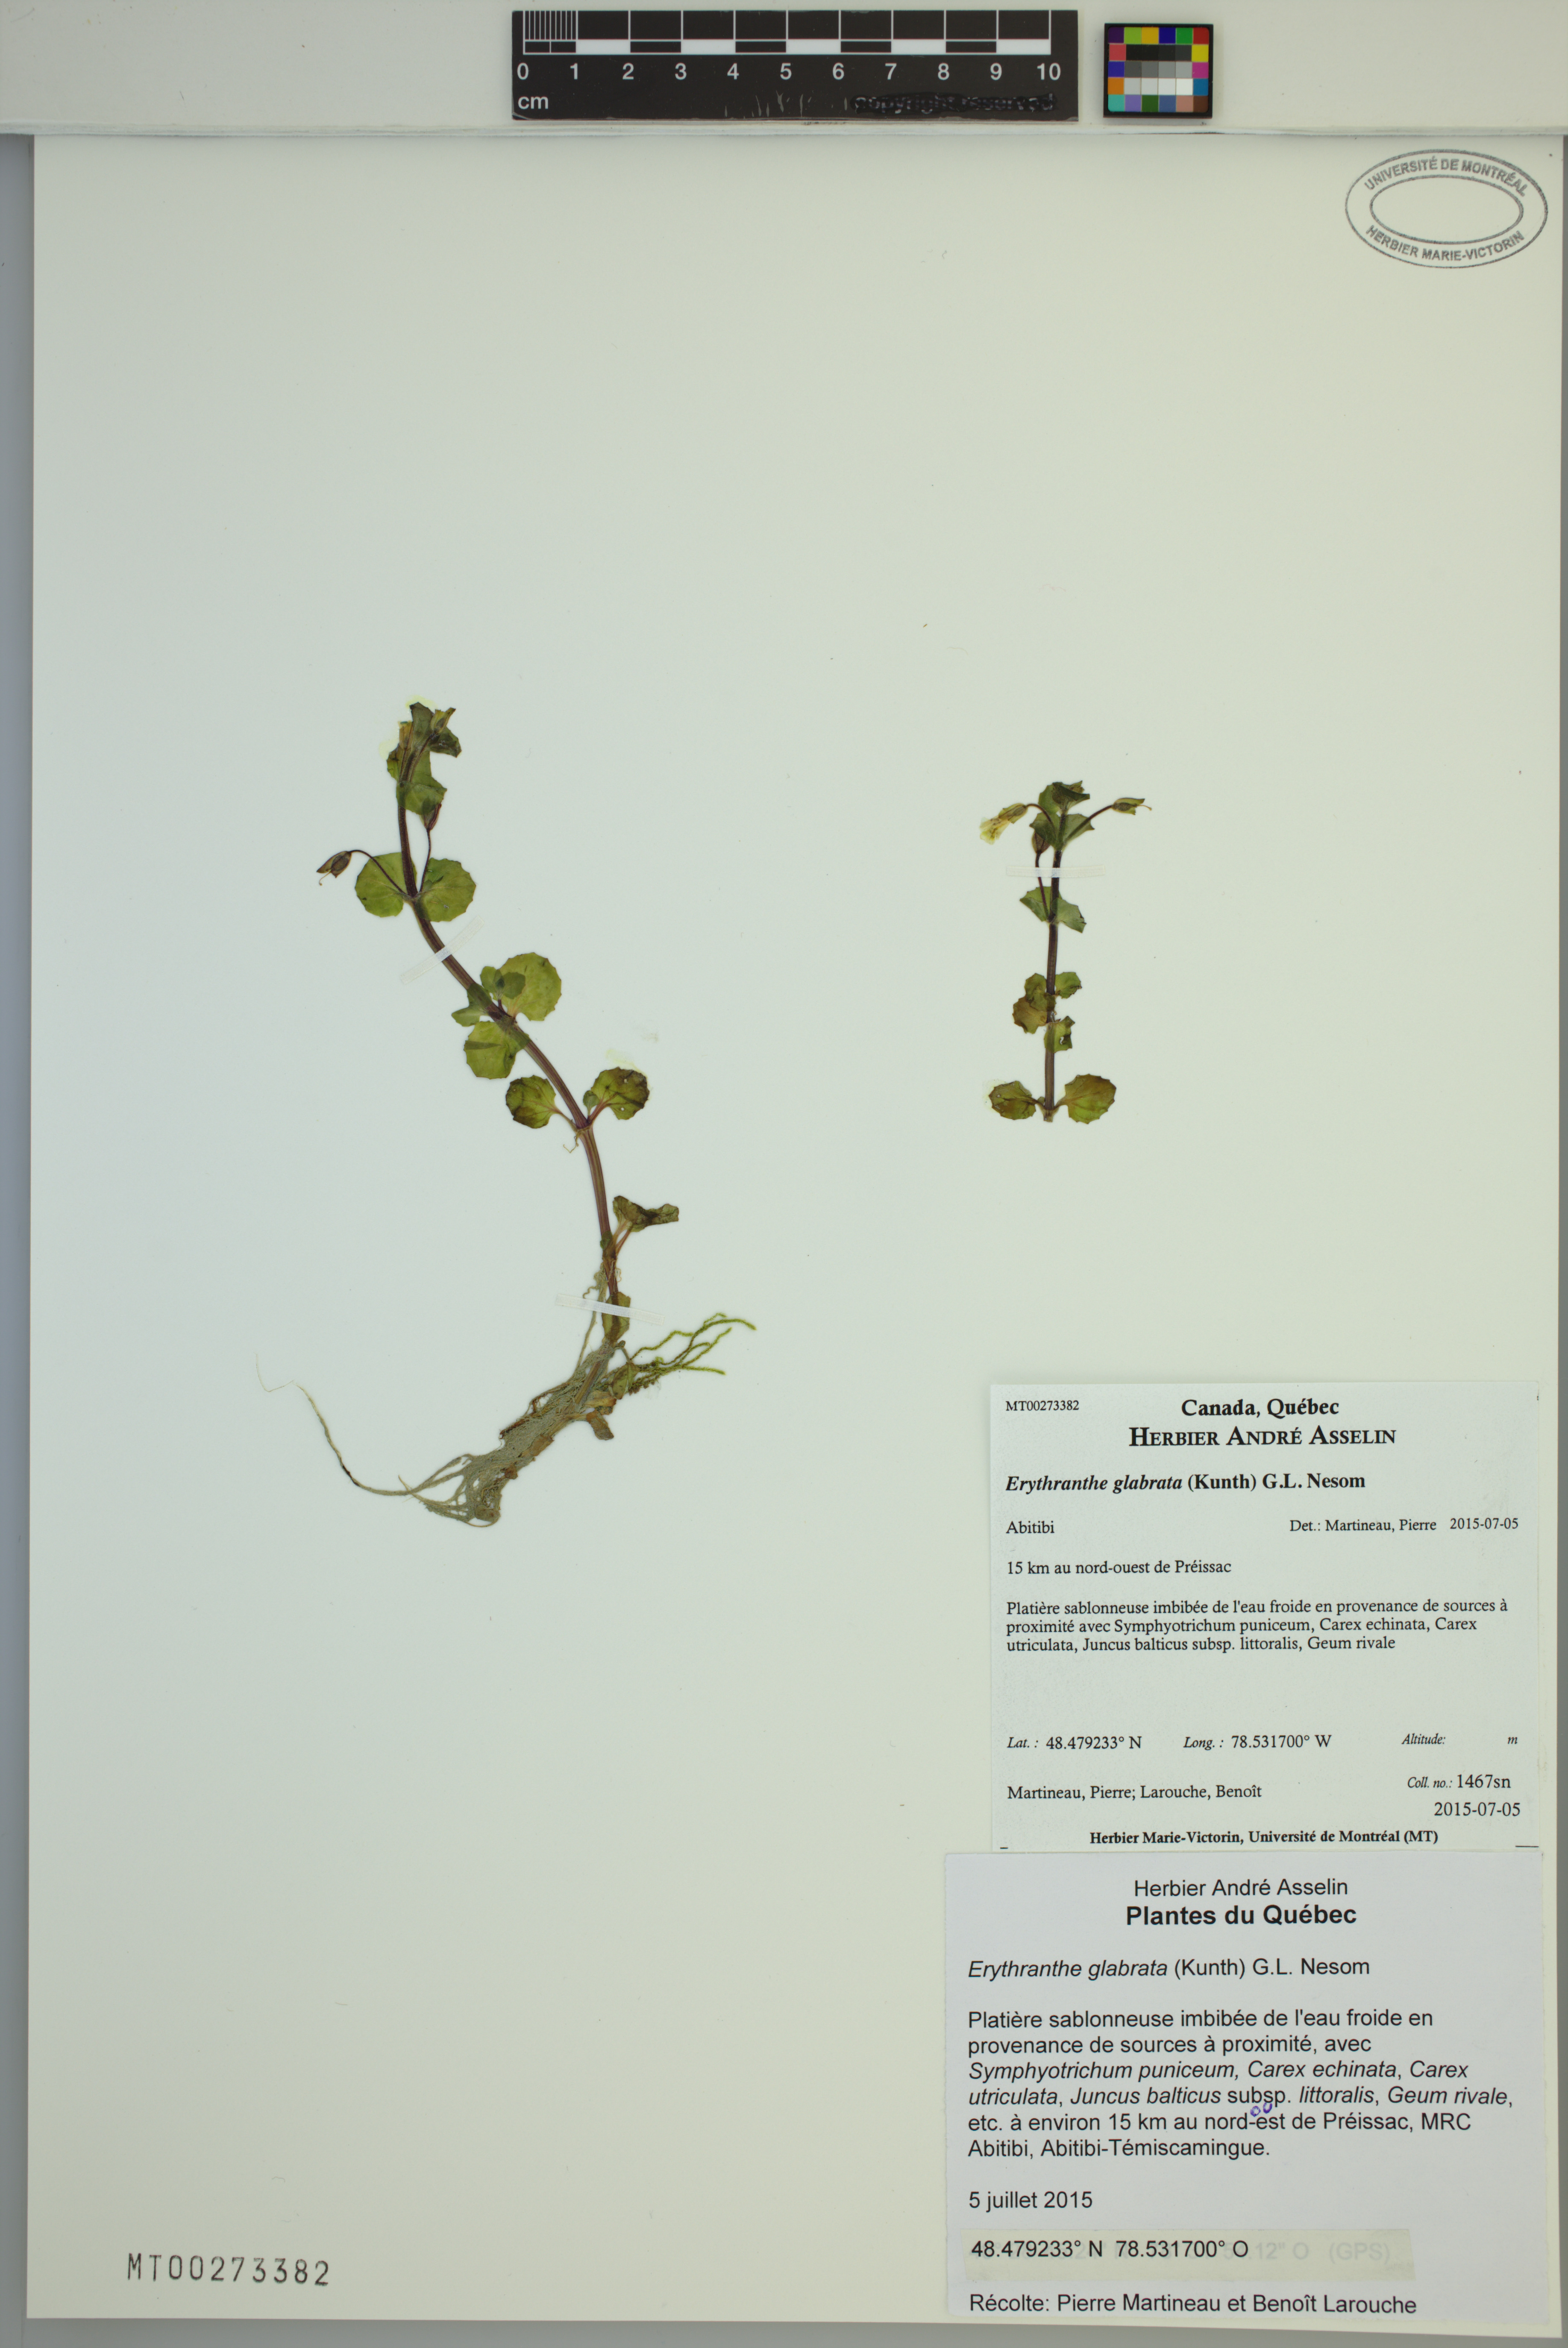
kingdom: Plantae
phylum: Tracheophyta
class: Magnoliopsida
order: Lamiales
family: Phrymaceae
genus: Erythranthe
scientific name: Erythranthe glabrata
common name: Round-leaved monkeyflower
